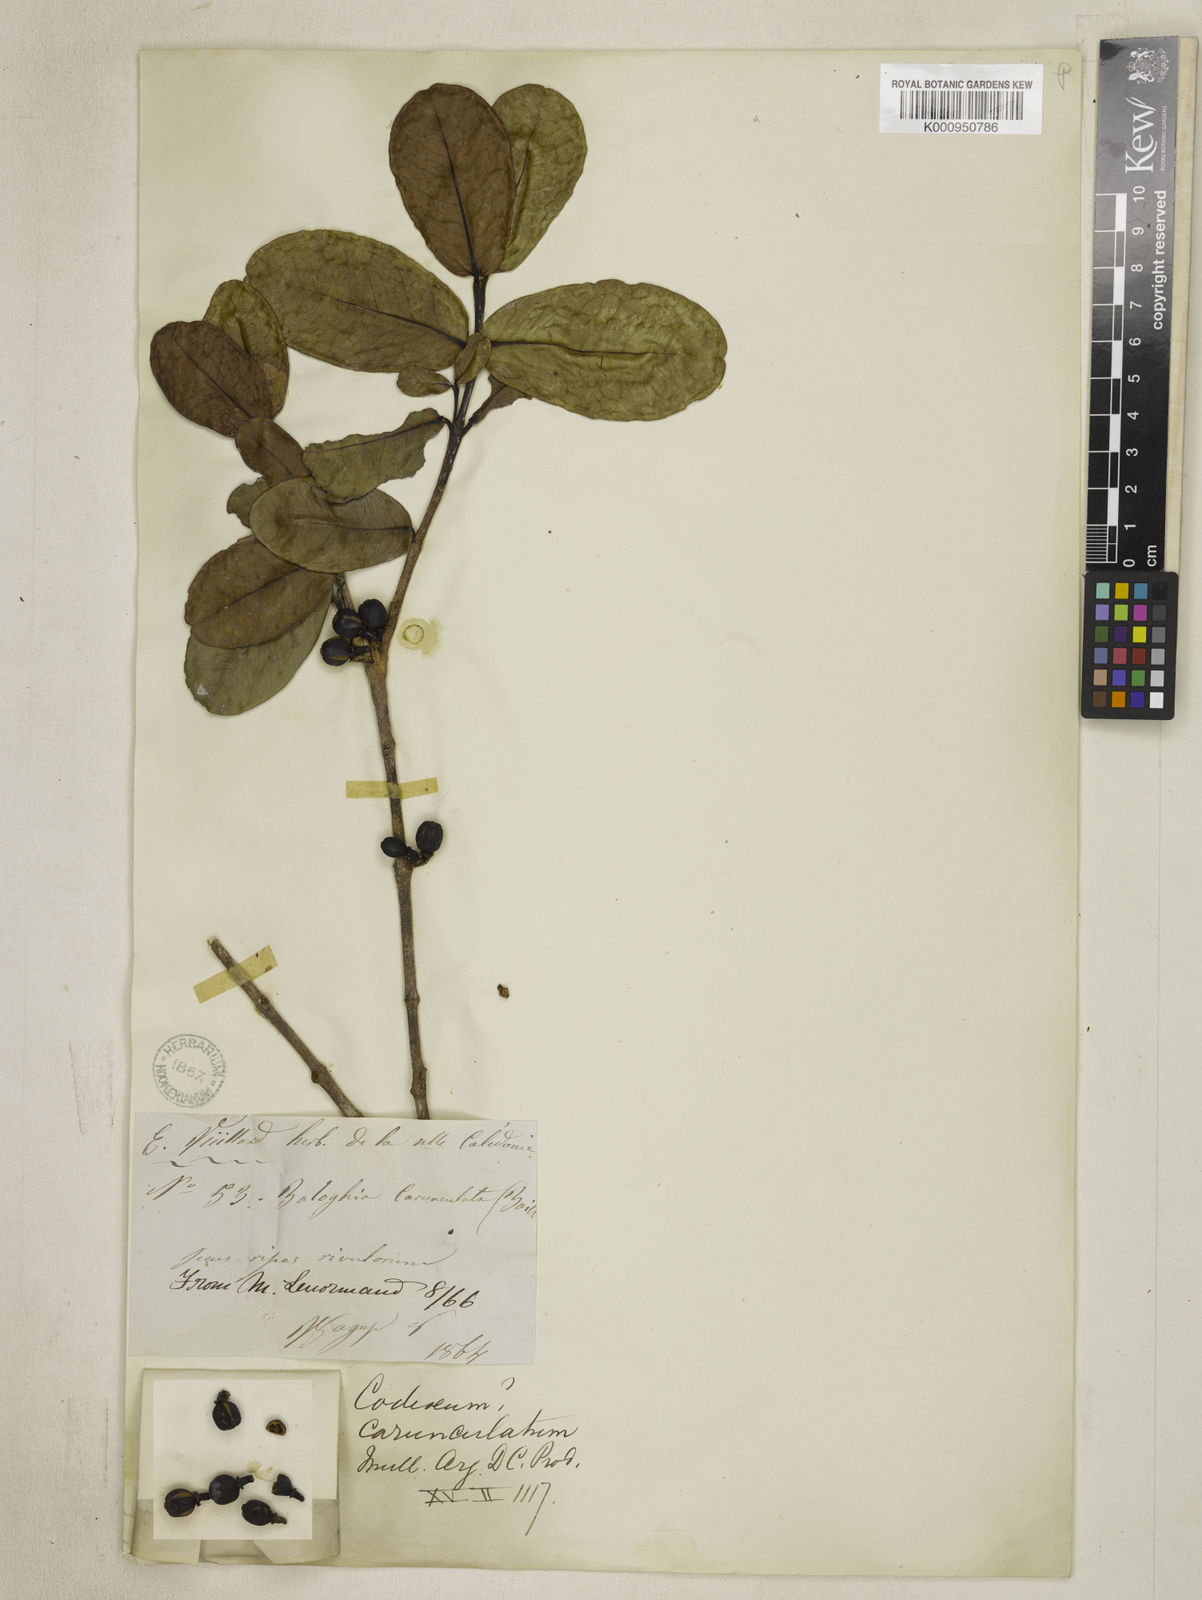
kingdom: Plantae
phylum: Tracheophyta
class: Magnoliopsida
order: Malpighiales
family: Picrodendraceae
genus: Austrobuxus
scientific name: Austrobuxus carunculatus
